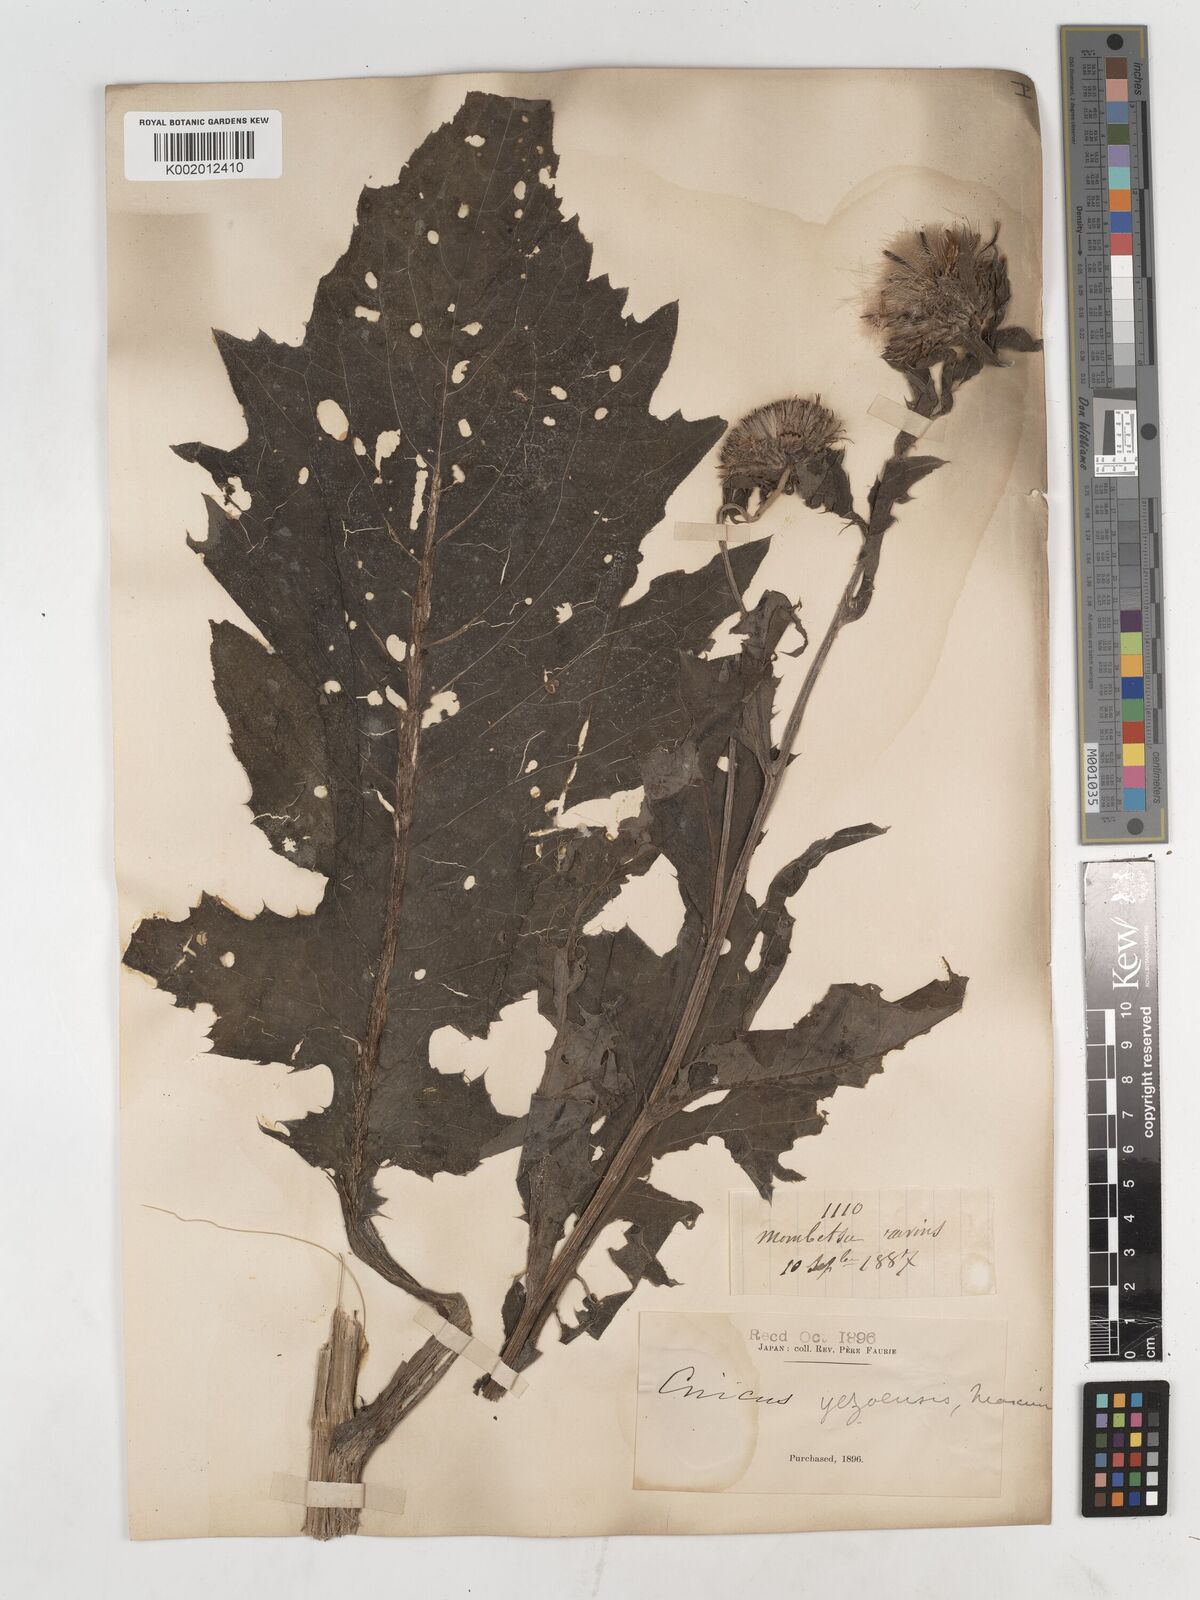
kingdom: Plantae
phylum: Tracheophyta
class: Magnoliopsida
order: Asterales
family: Asteraceae
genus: Cirsium
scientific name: Cirsium yezoense
